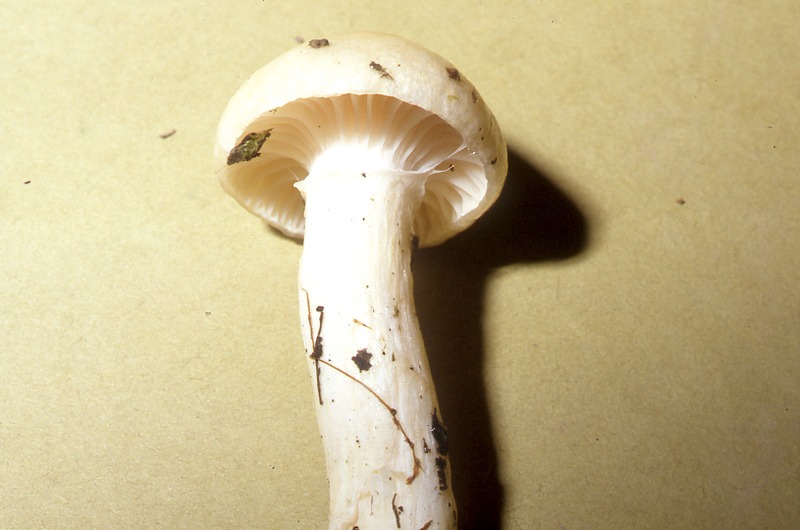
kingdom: Fungi
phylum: Basidiomycota
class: Agaricomycetes
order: Agaricales
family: Hygrophoraceae
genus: Hygrophorus
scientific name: Hygrophorus ligatus
